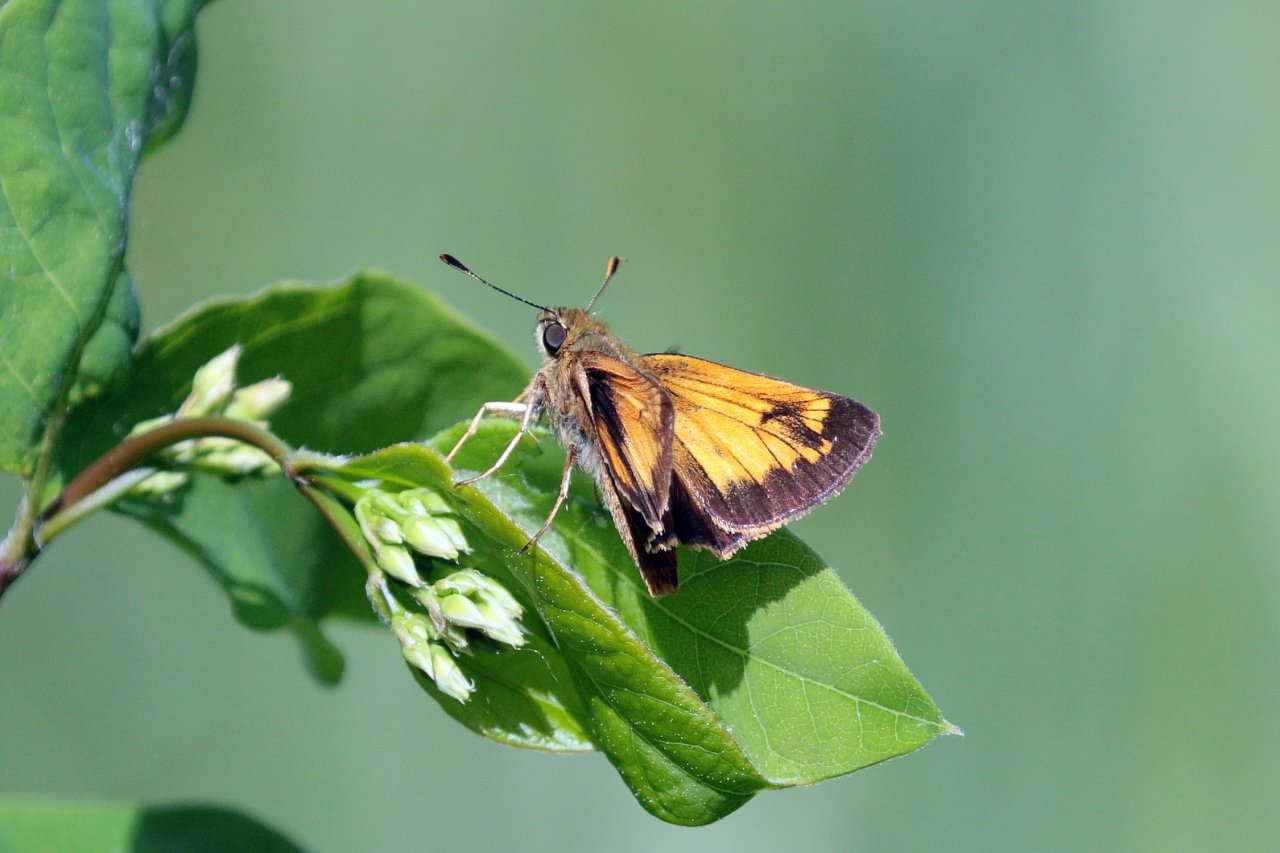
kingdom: Animalia
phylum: Arthropoda
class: Insecta
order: Lepidoptera
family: Hesperiidae
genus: Lon
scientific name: Lon hobomok
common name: Hobomok Skipper
